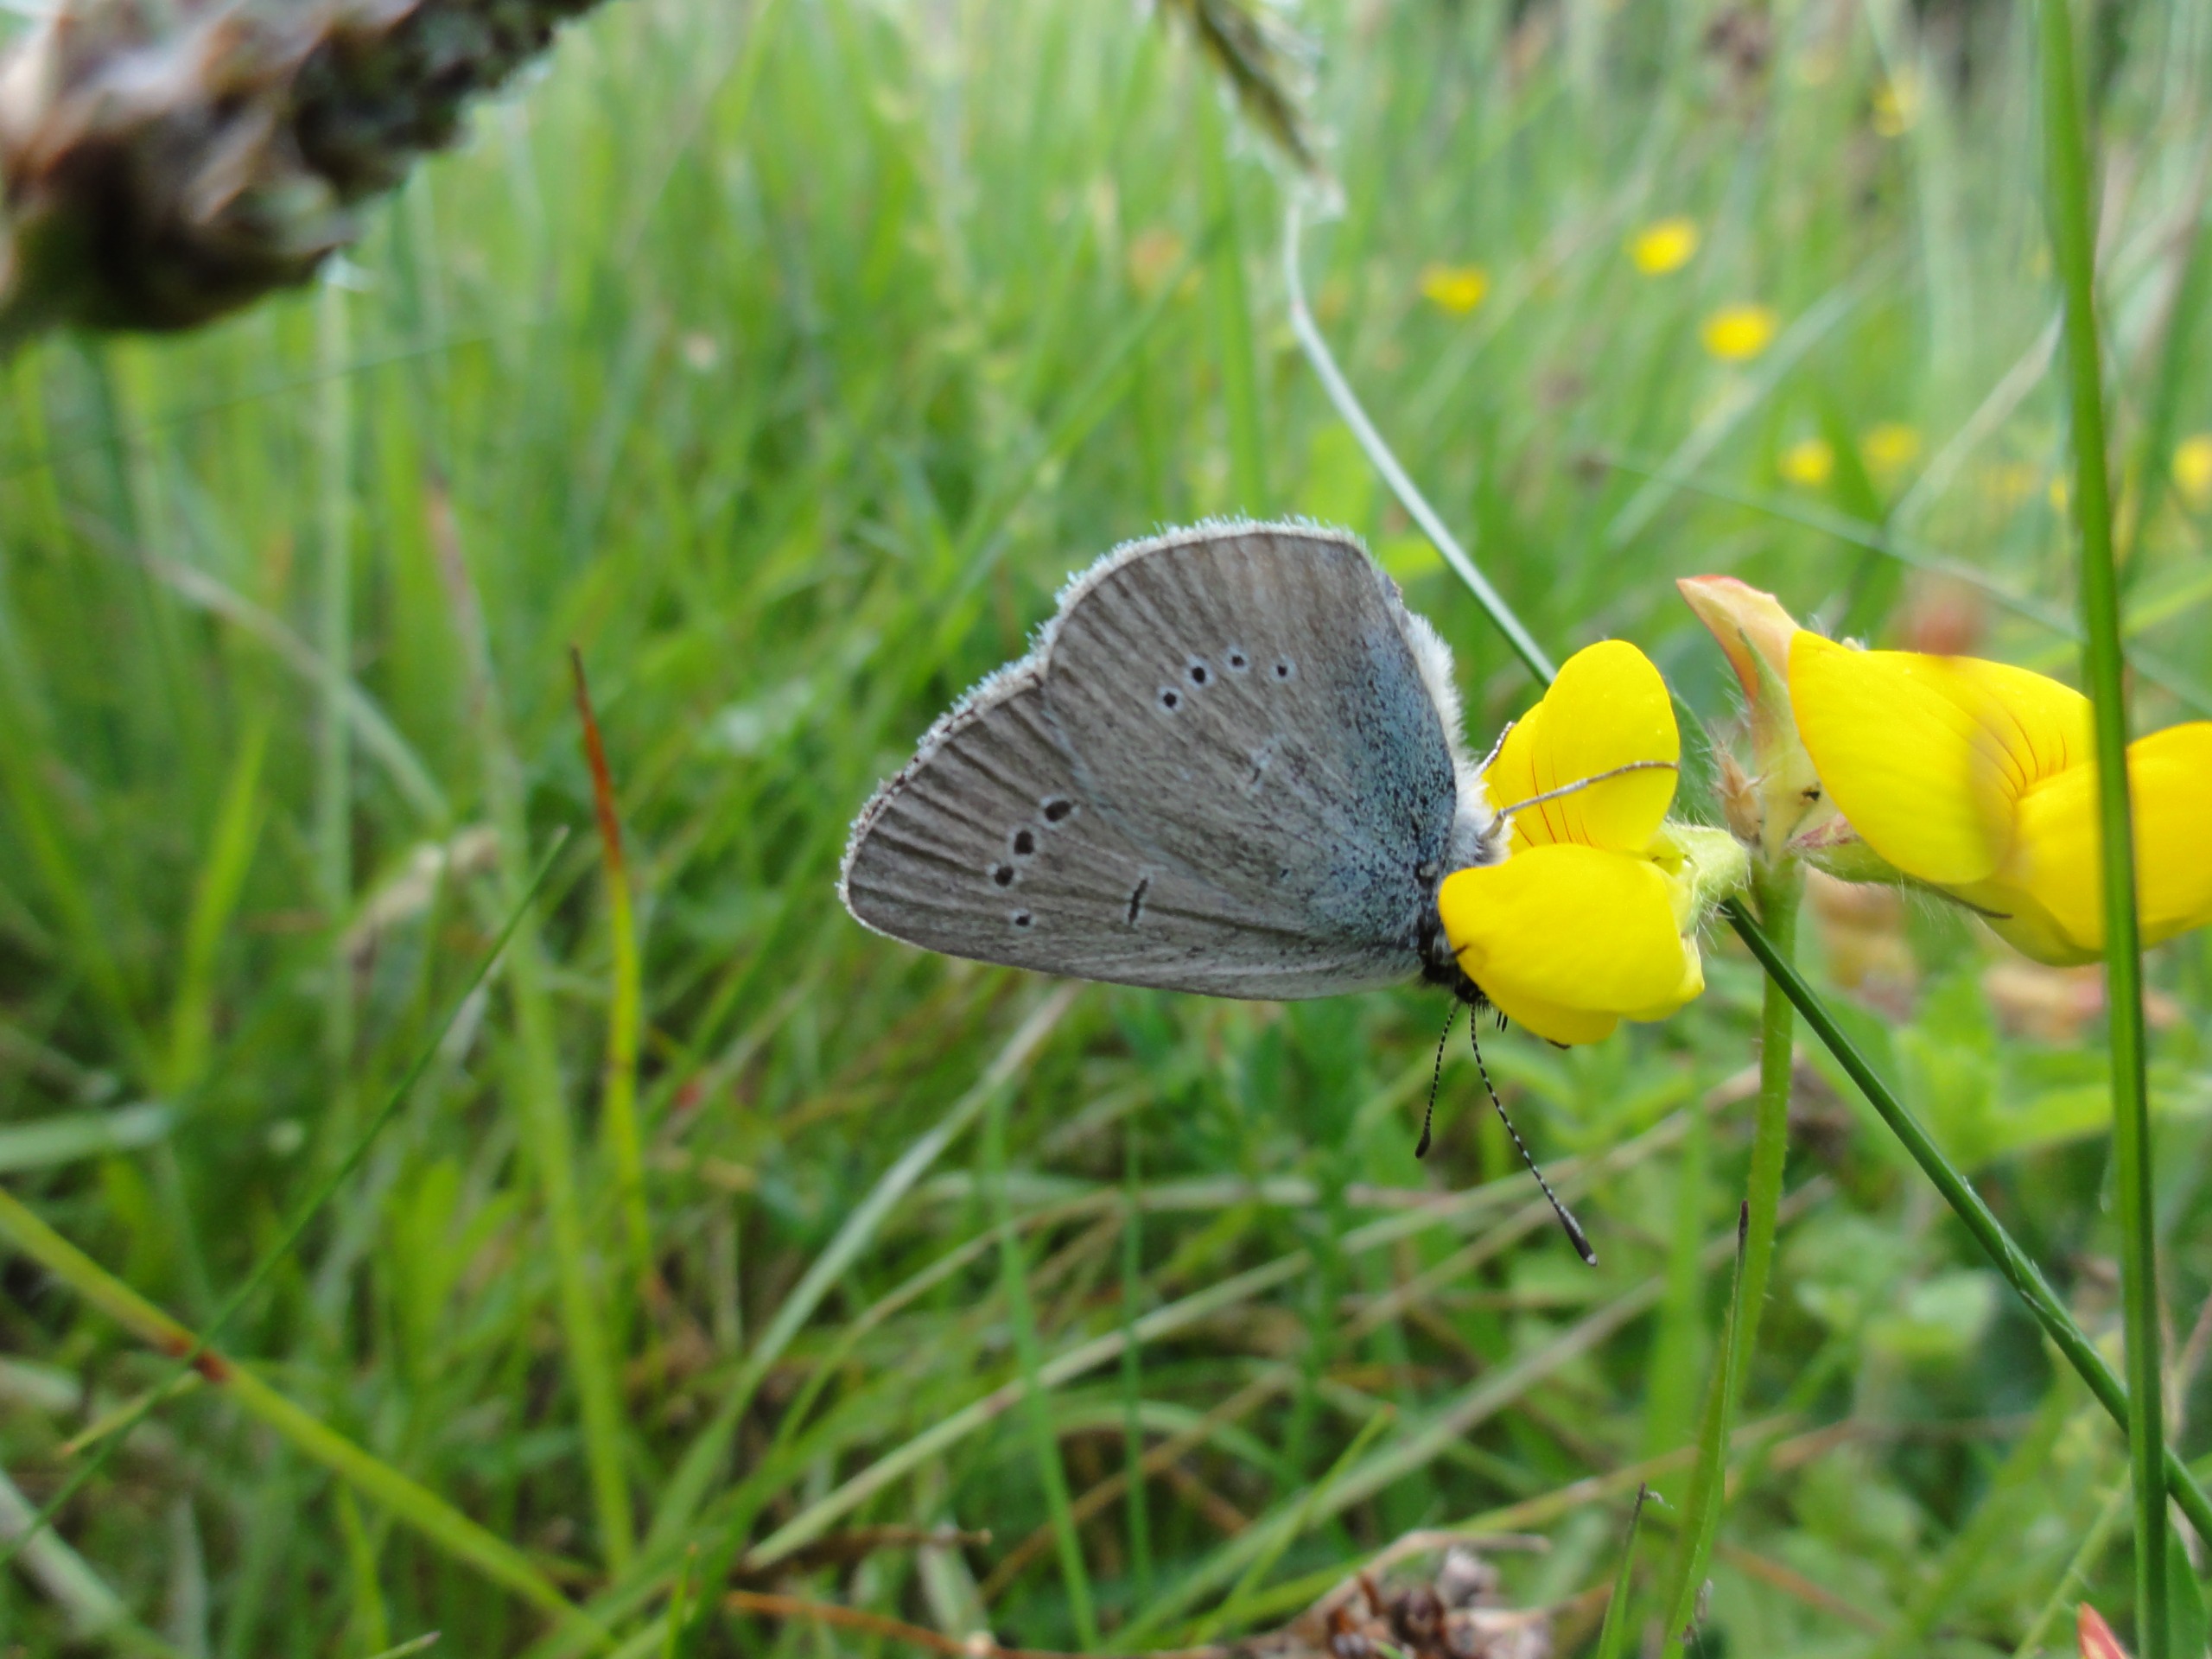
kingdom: Animalia
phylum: Arthropoda
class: Insecta
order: Lepidoptera
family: Lycaenidae
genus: Cyaniris
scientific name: Cyaniris semiargus
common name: Engblåfugl
